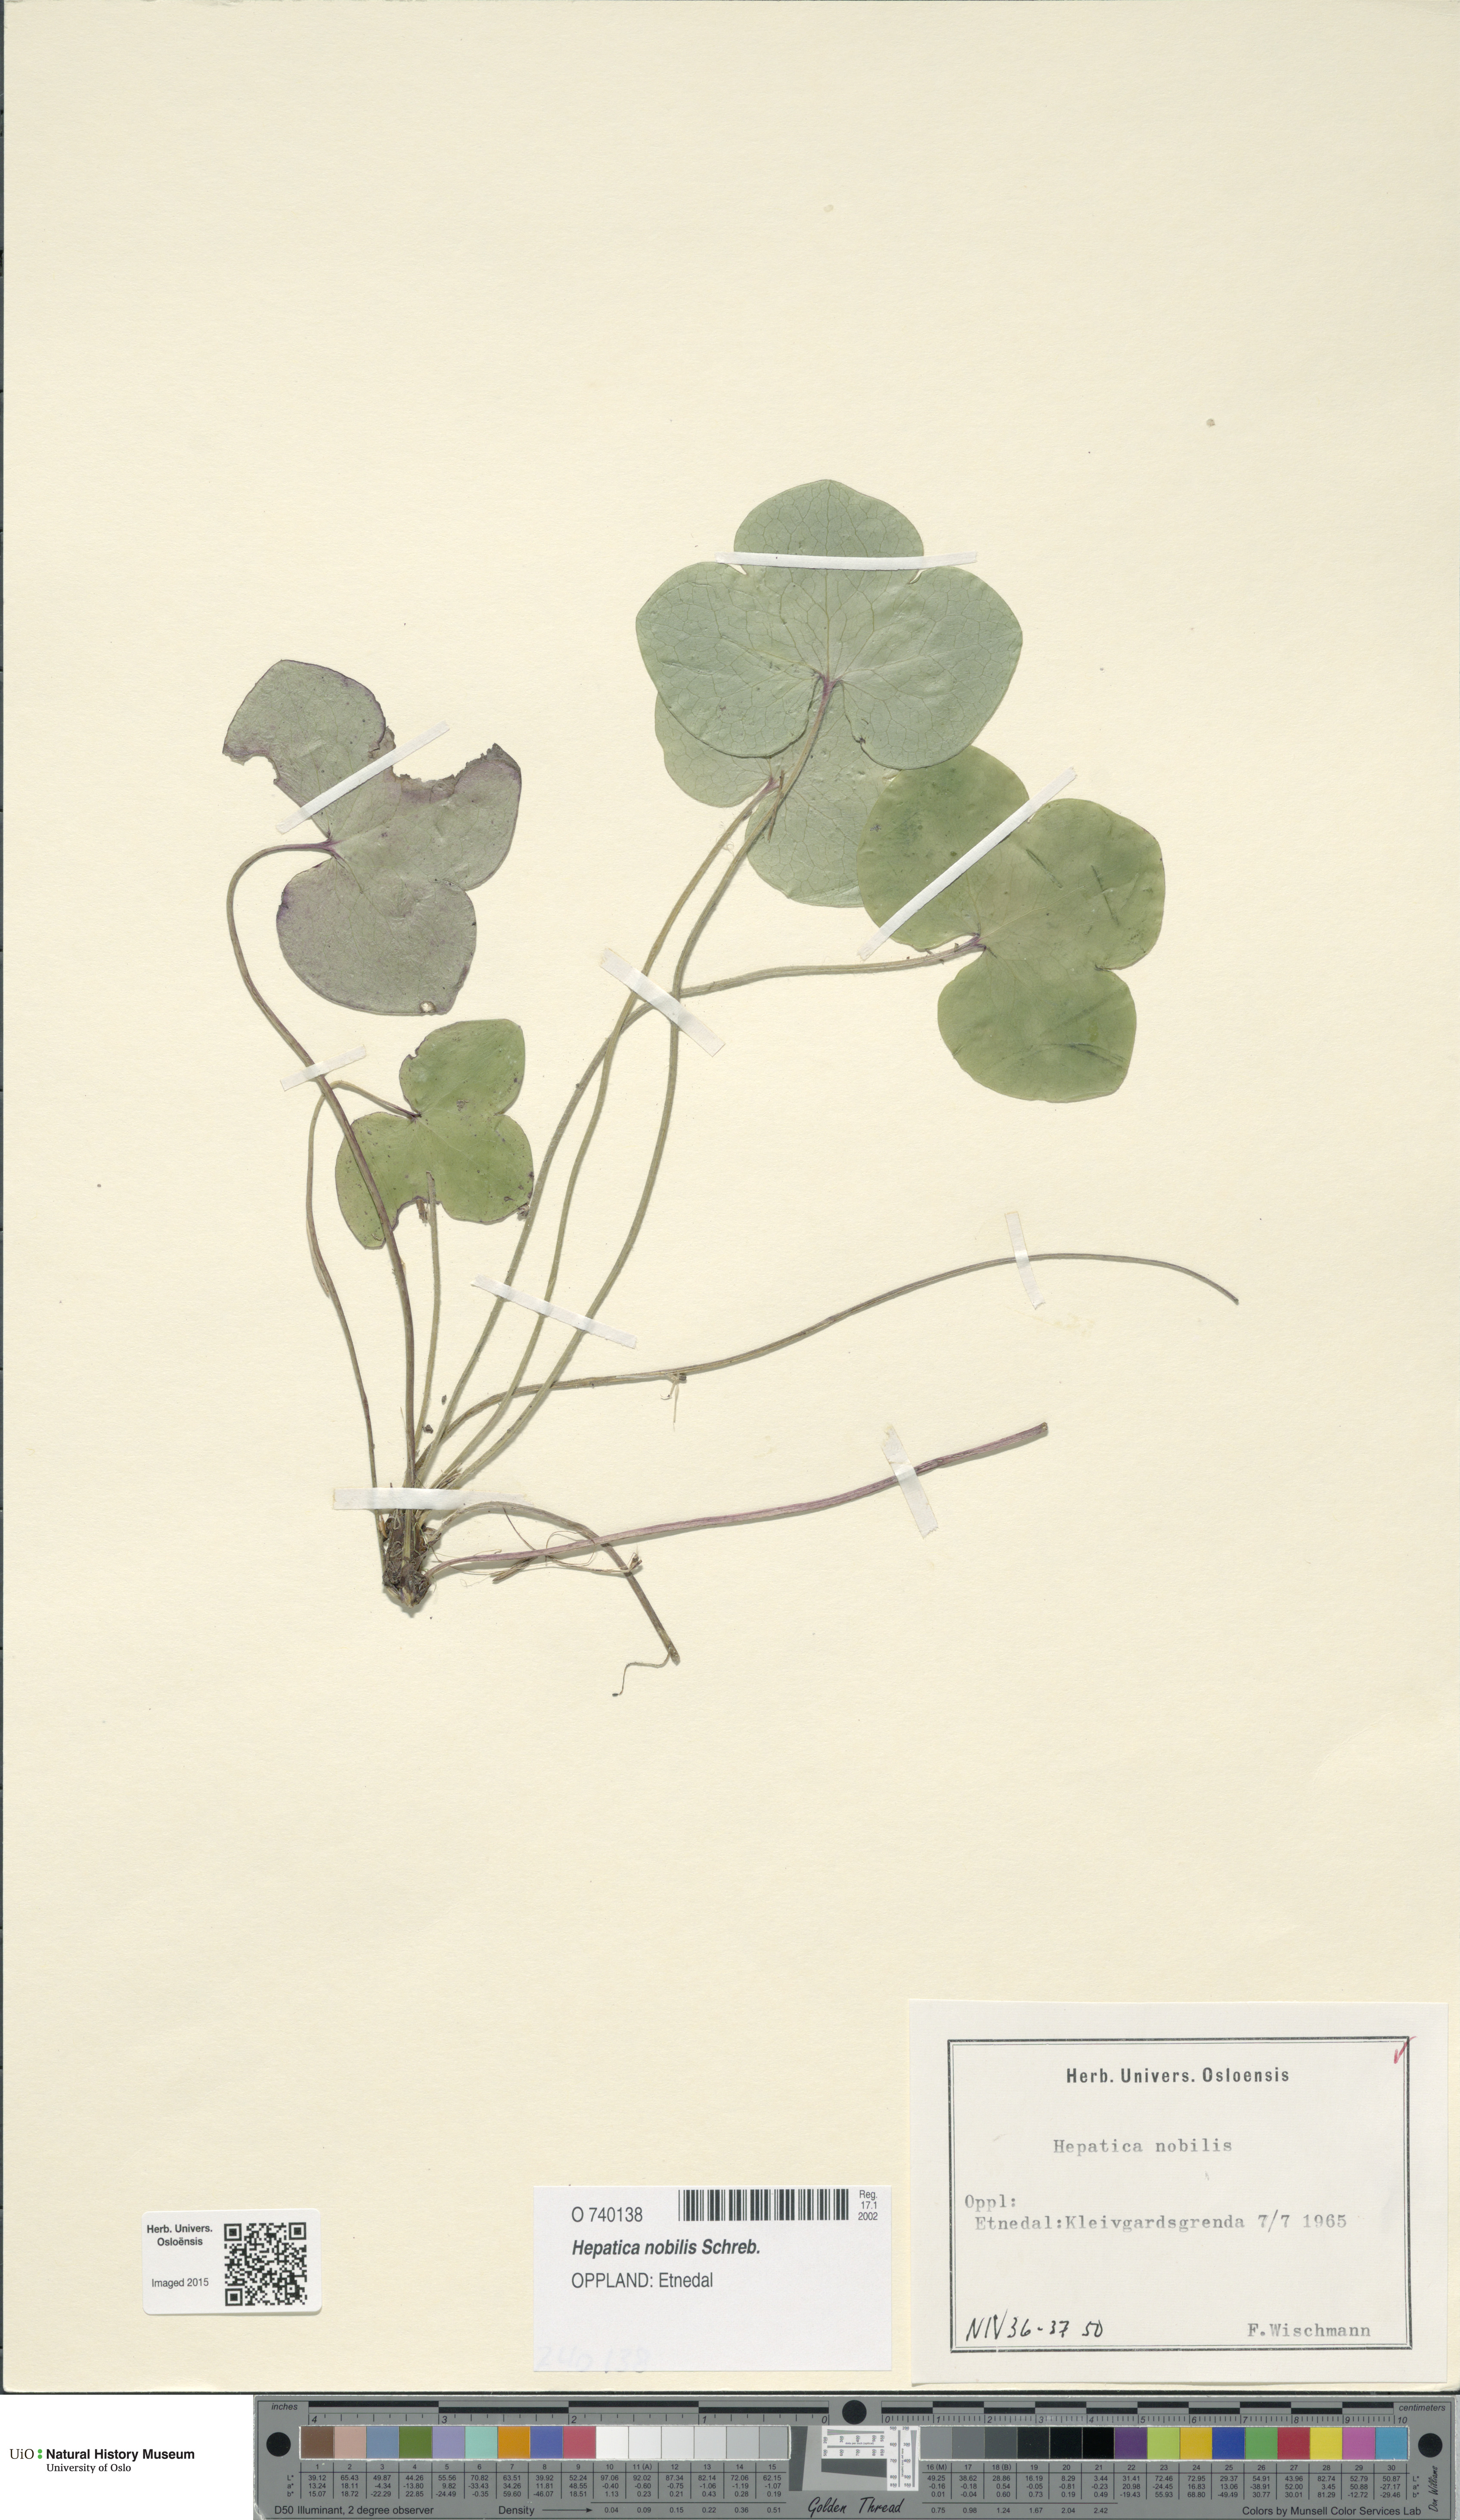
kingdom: Plantae
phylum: Tracheophyta
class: Magnoliopsida
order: Ranunculales
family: Ranunculaceae
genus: Hepatica
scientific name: Hepatica nobilis
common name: Liverleaf
